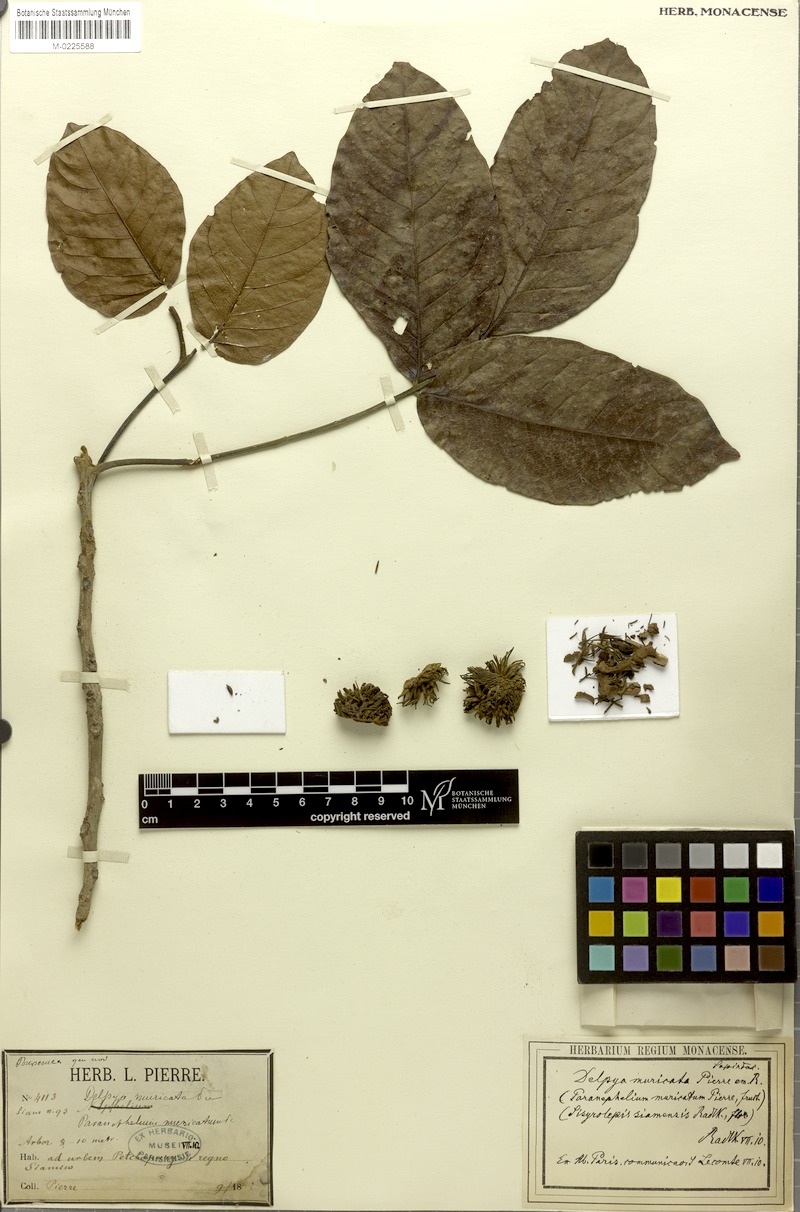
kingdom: Plantae
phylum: Tracheophyta
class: Magnoliopsida
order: Sapindales
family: Sapindaceae
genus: Sisyrolepis
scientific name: Sisyrolepis muricata
